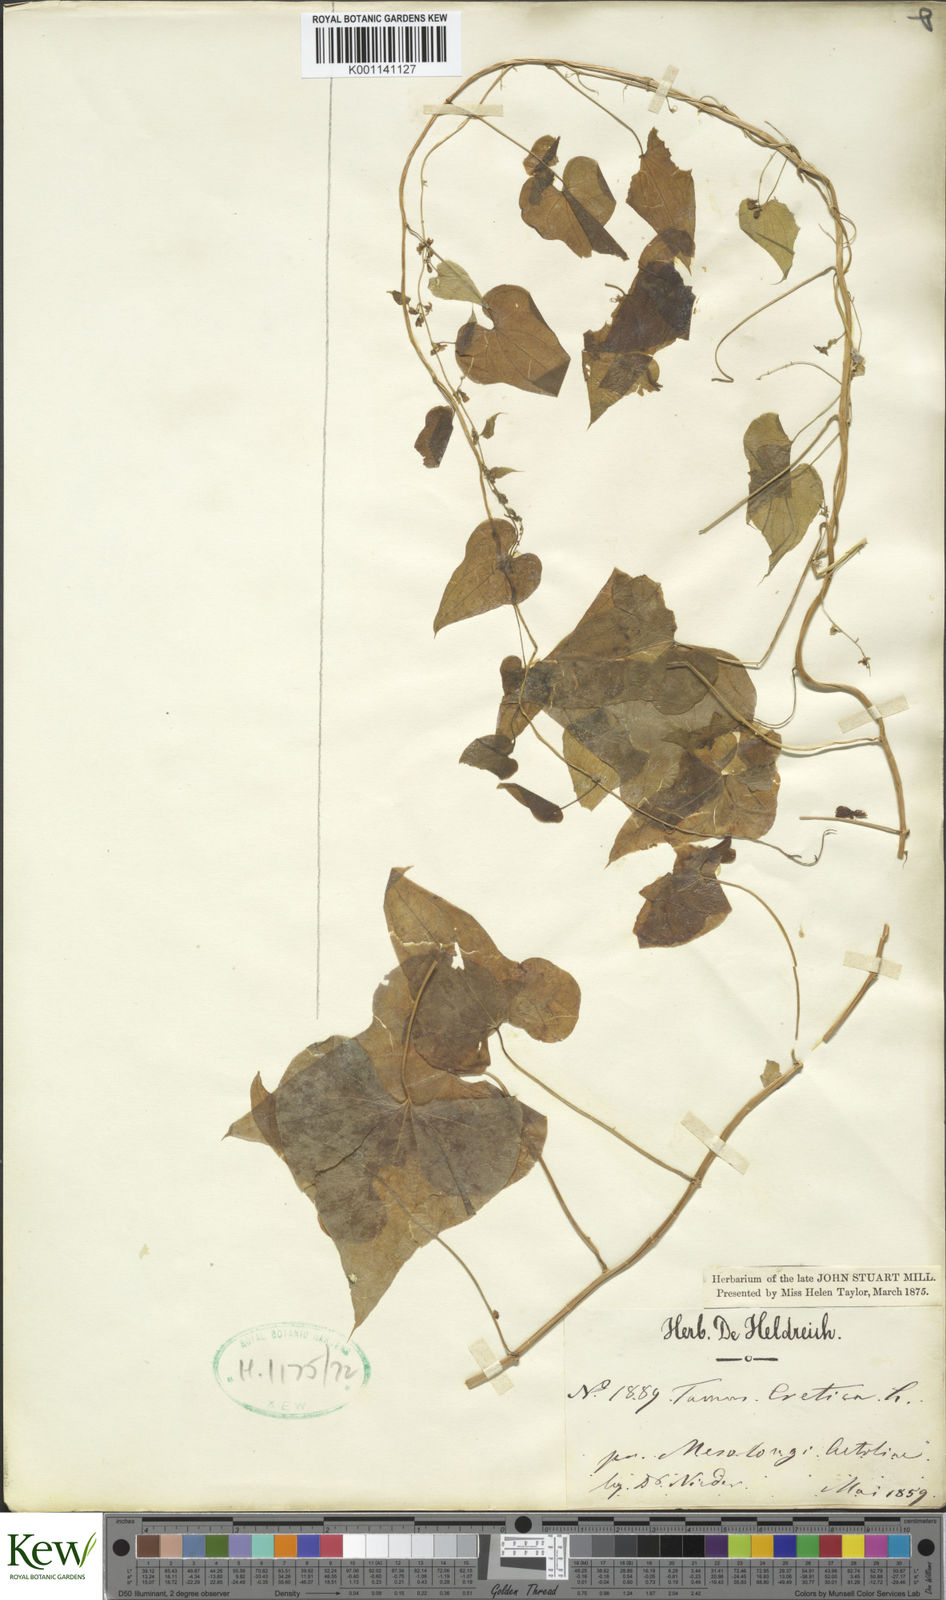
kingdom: Plantae
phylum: Tracheophyta
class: Liliopsida
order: Dioscoreales
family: Dioscoreaceae
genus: Dioscorea
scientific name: Dioscorea communis
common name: Black-bindweed
